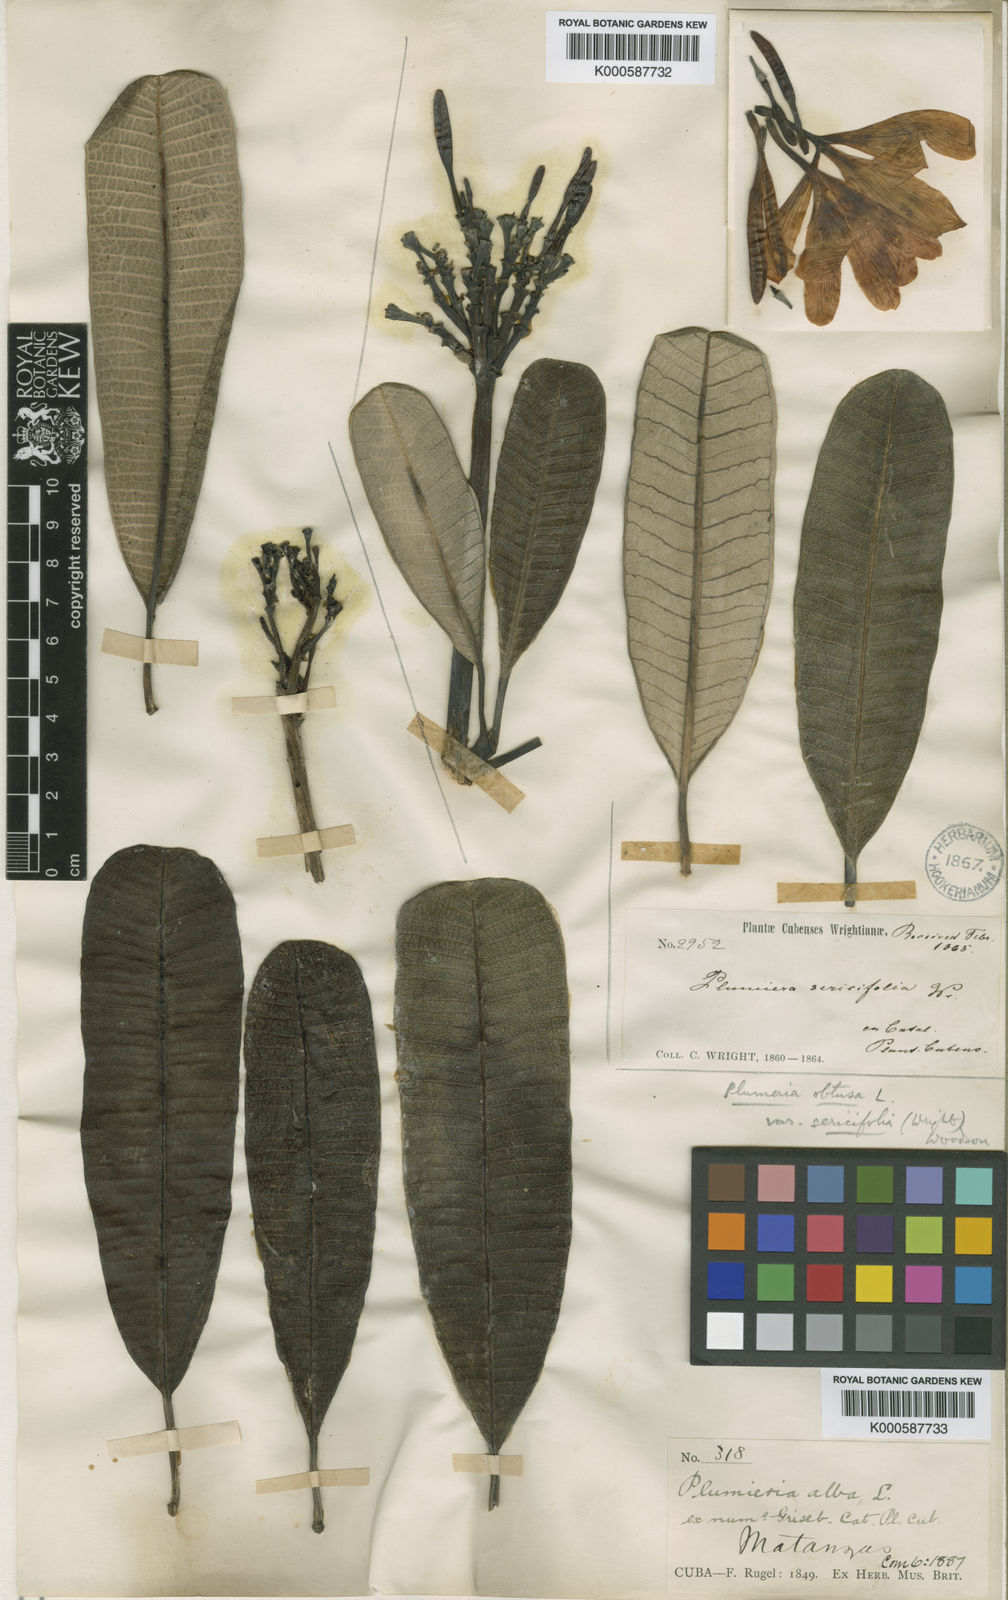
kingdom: Plantae
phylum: Tracheophyta
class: Magnoliopsida
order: Gentianales
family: Apocynaceae
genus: Plumeria
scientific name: Plumeria sericifolia
